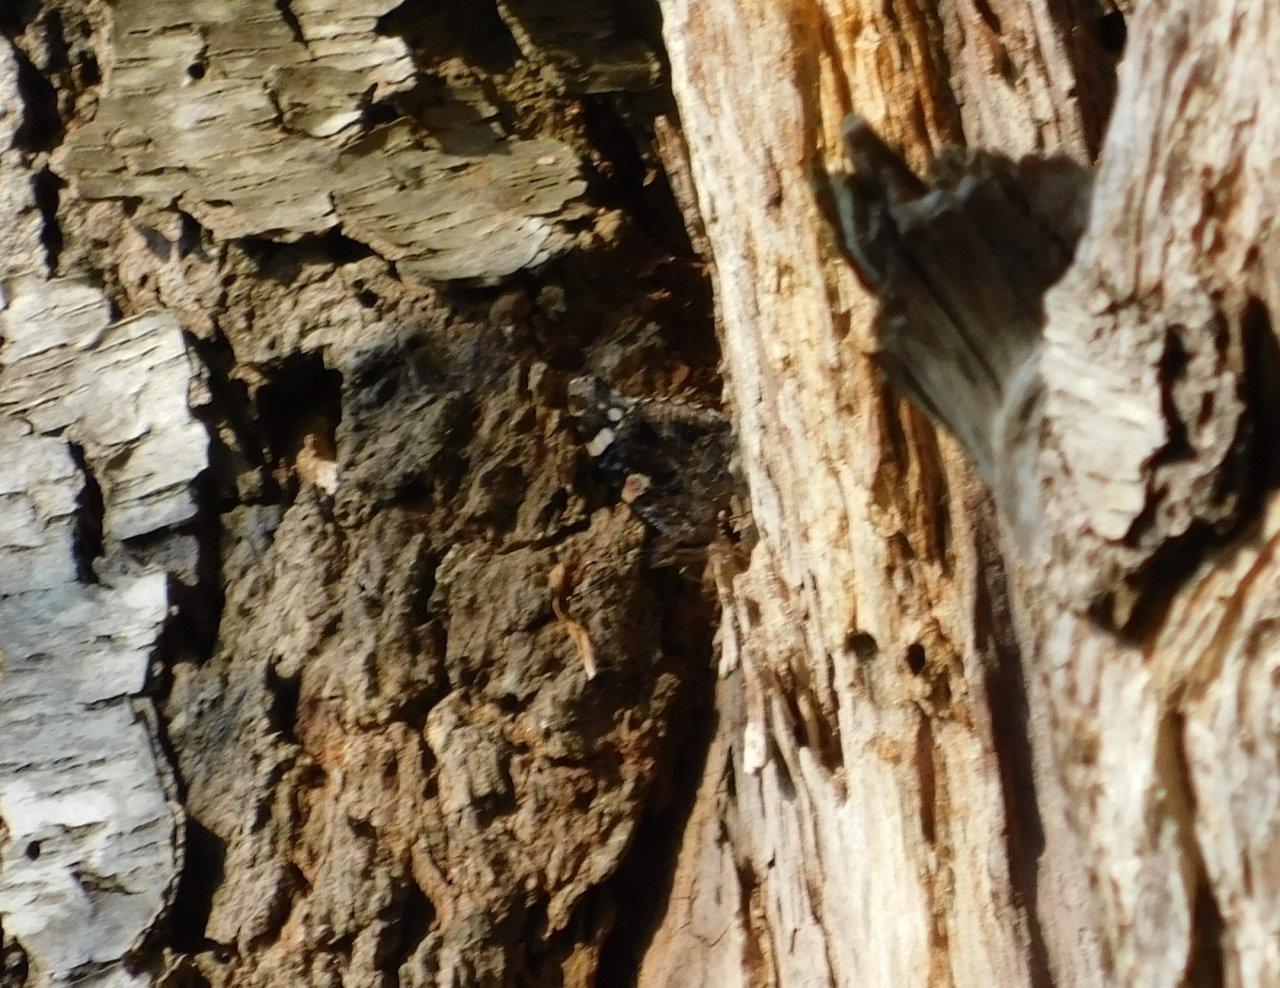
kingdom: Animalia
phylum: Arthropoda
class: Insecta
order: Lepidoptera
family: Nymphalidae
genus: Vanessa
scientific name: Vanessa atalanta
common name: Red Admiral
